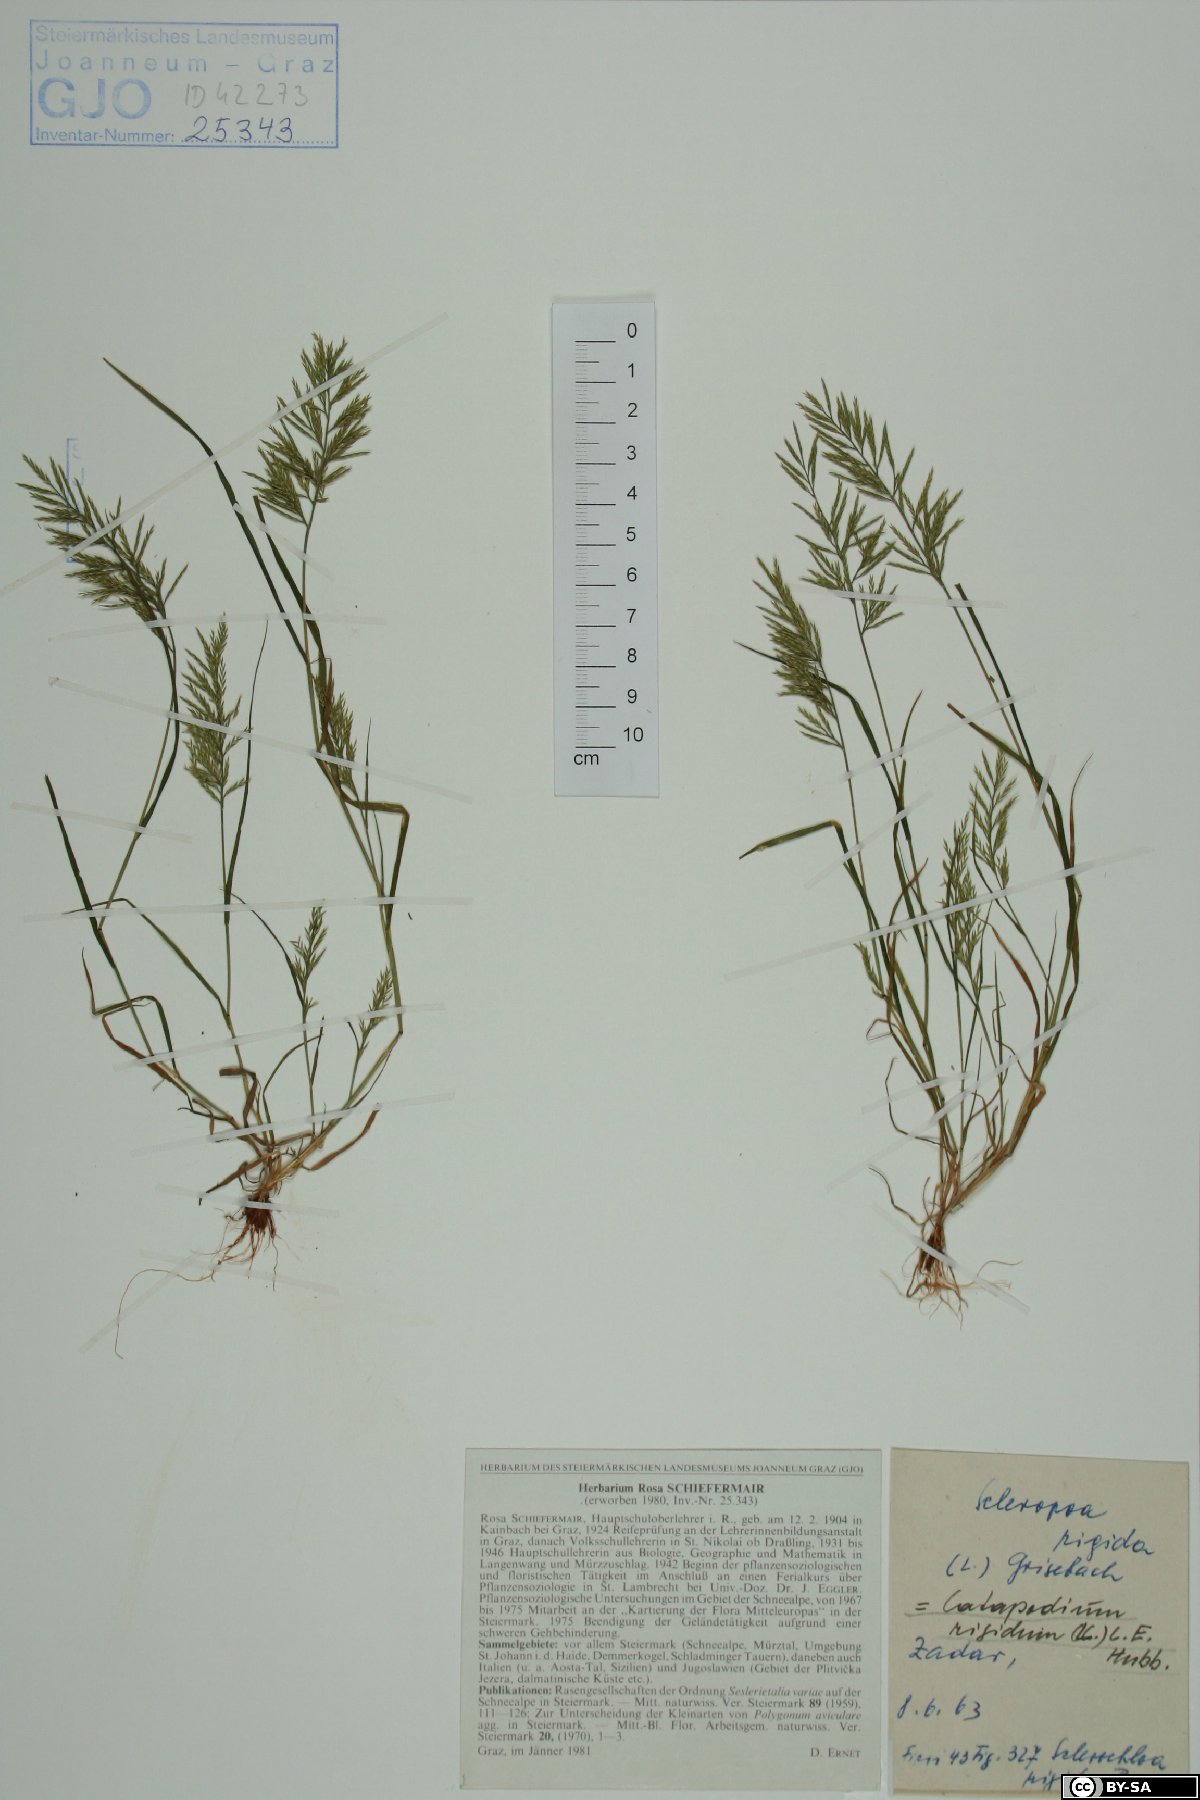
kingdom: Plantae
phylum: Tracheophyta
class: Liliopsida
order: Poales
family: Poaceae
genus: Catapodium
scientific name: Catapodium rigidum
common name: Fern-grass
